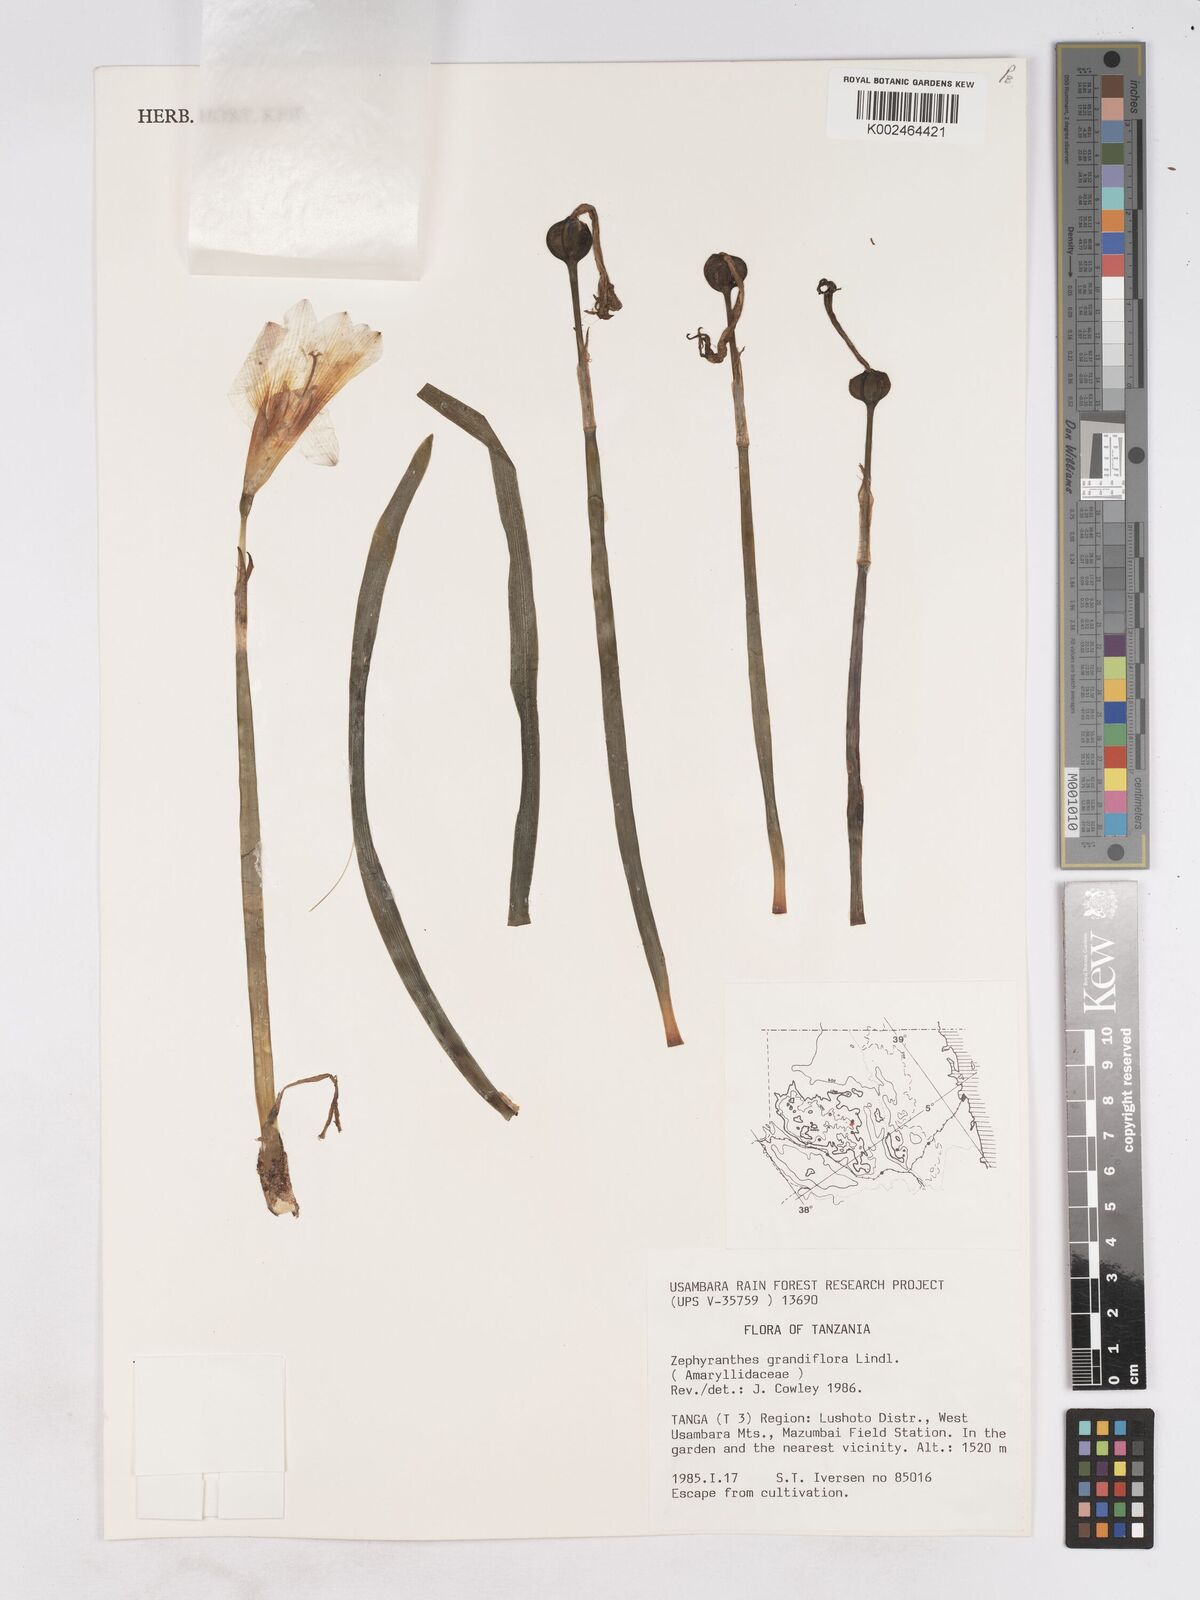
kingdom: Plantae
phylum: Tracheophyta
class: Liliopsida
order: Asparagales
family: Amaryllidaceae
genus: Zephyranthes
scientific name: Zephyranthes minuta
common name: Pink rain lily
